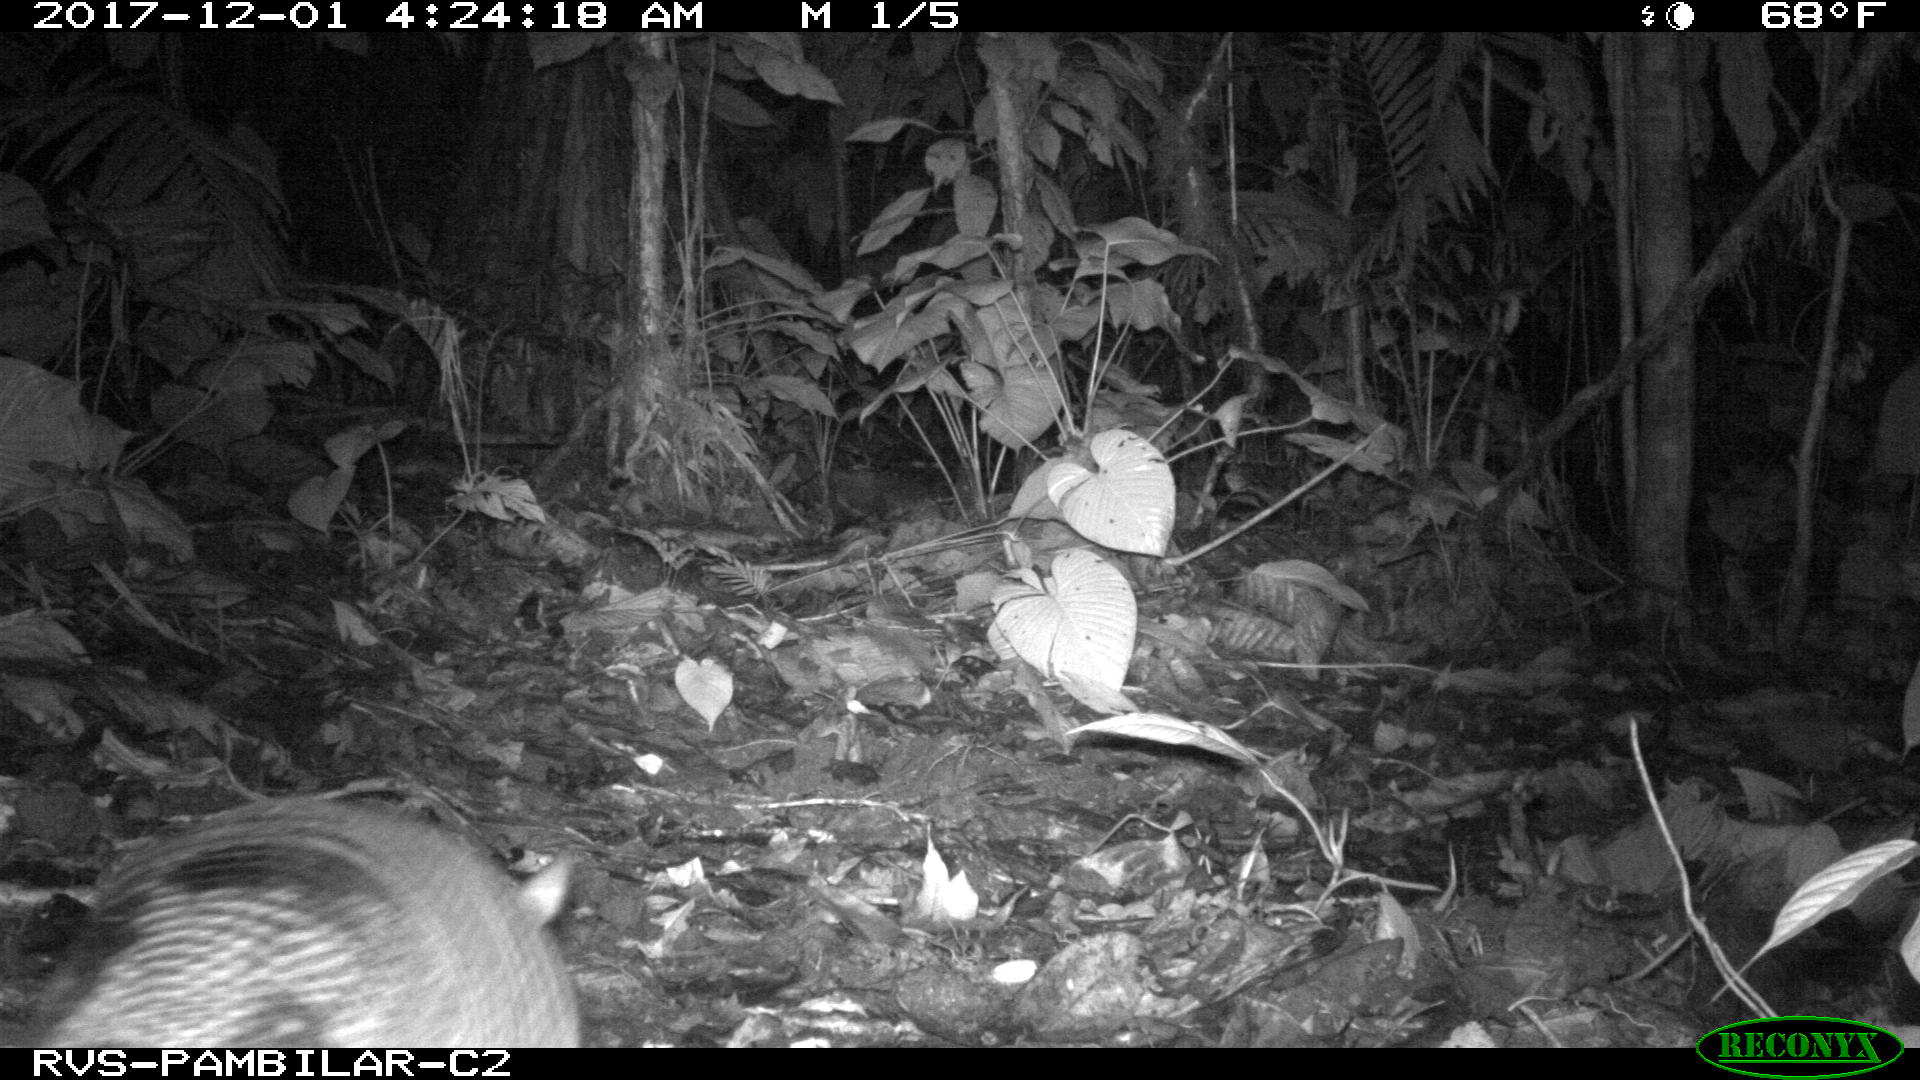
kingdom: Animalia
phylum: Chordata
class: Mammalia
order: Cingulata
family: Dasypodidae
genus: Dasypus
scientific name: Dasypus novemcinctus
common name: Nine-banded armadillo
